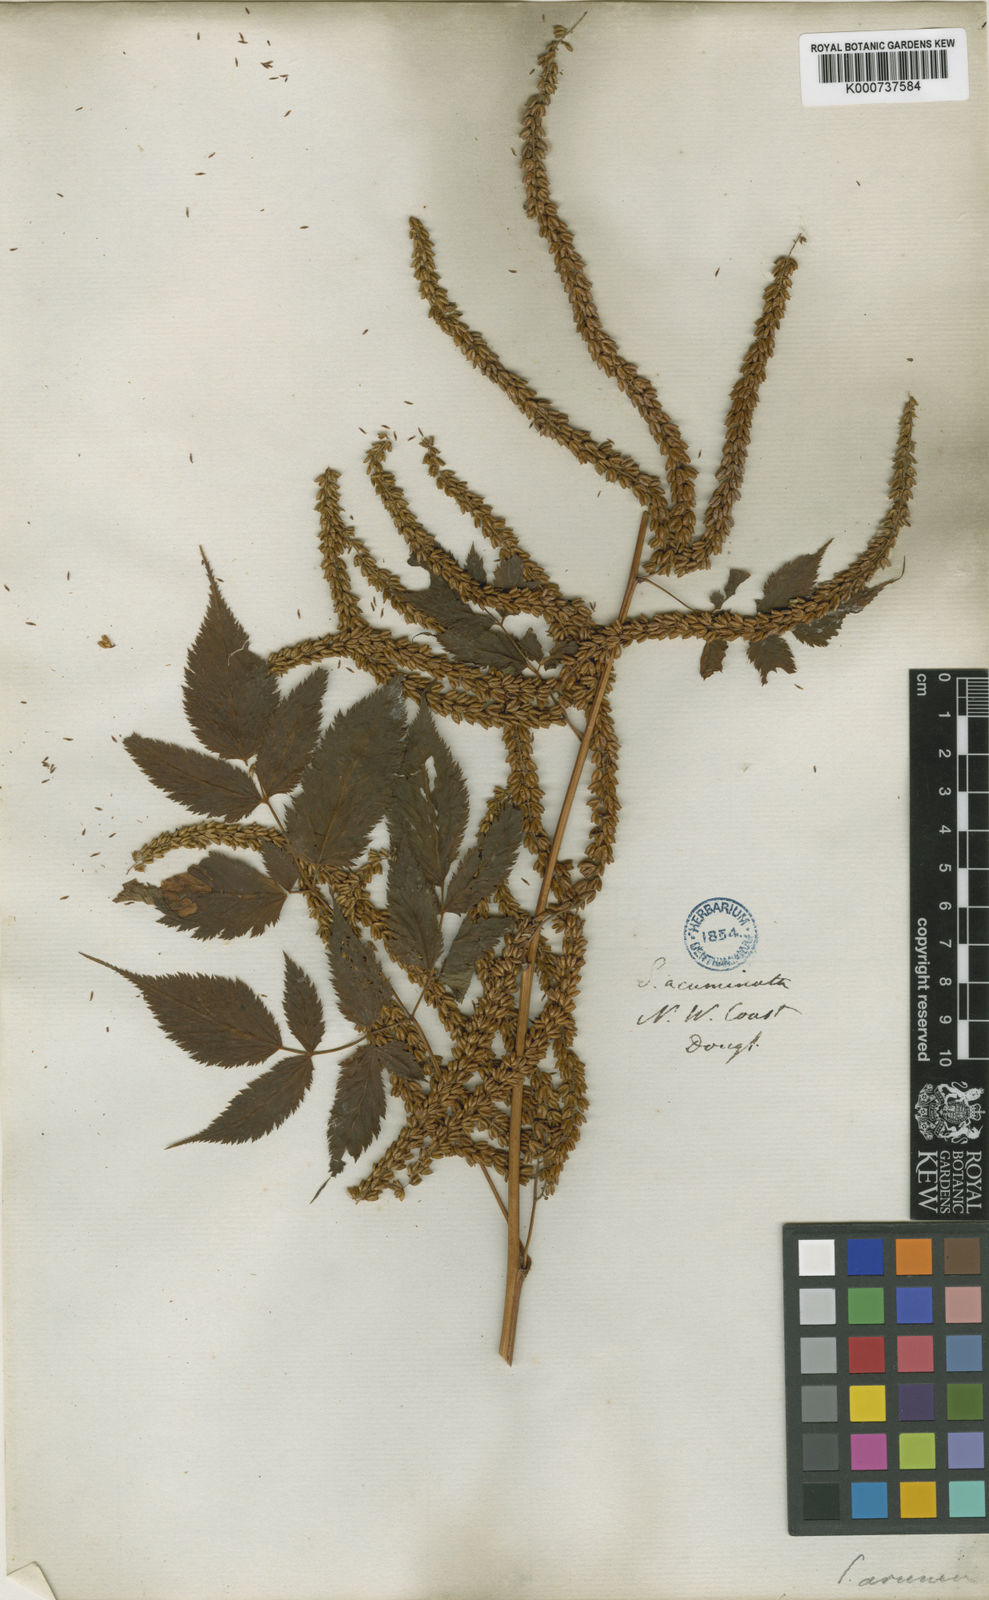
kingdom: Plantae
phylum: Tracheophyta
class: Magnoliopsida
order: Rosales
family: Rosaceae
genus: Aruncus
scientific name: Aruncus dioicus
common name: Buck's-beard
